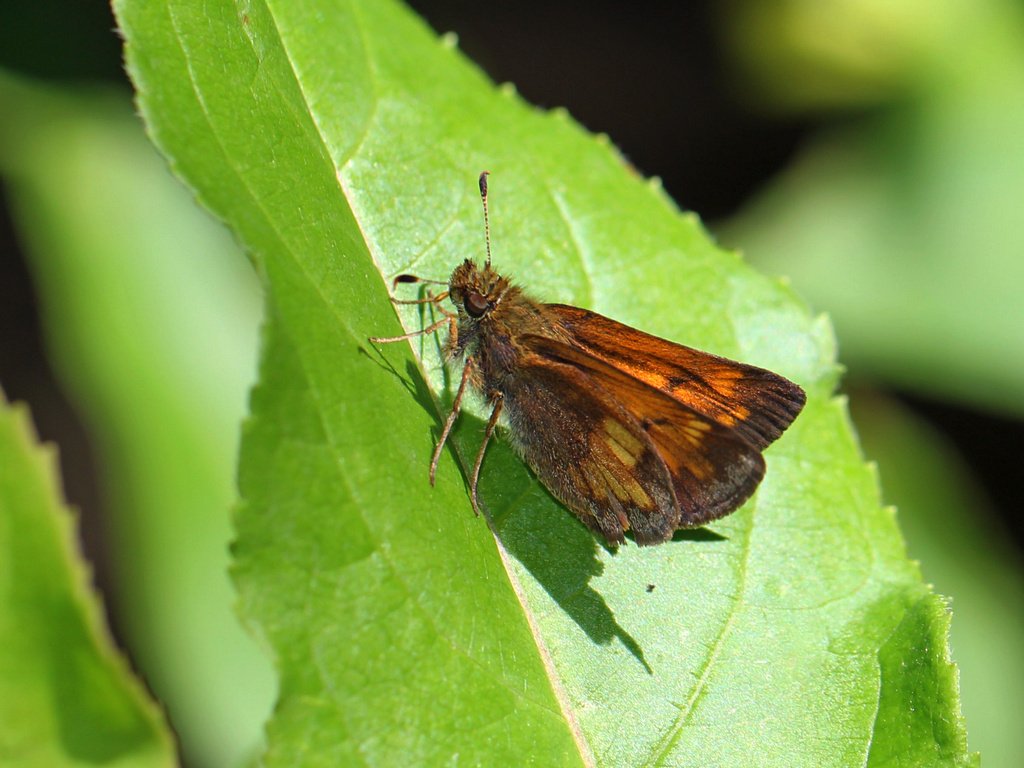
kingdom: Animalia
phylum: Arthropoda
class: Insecta
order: Lepidoptera
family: Hesperiidae
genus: Lon
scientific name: Lon hobomok
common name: Hobomok Skipper
